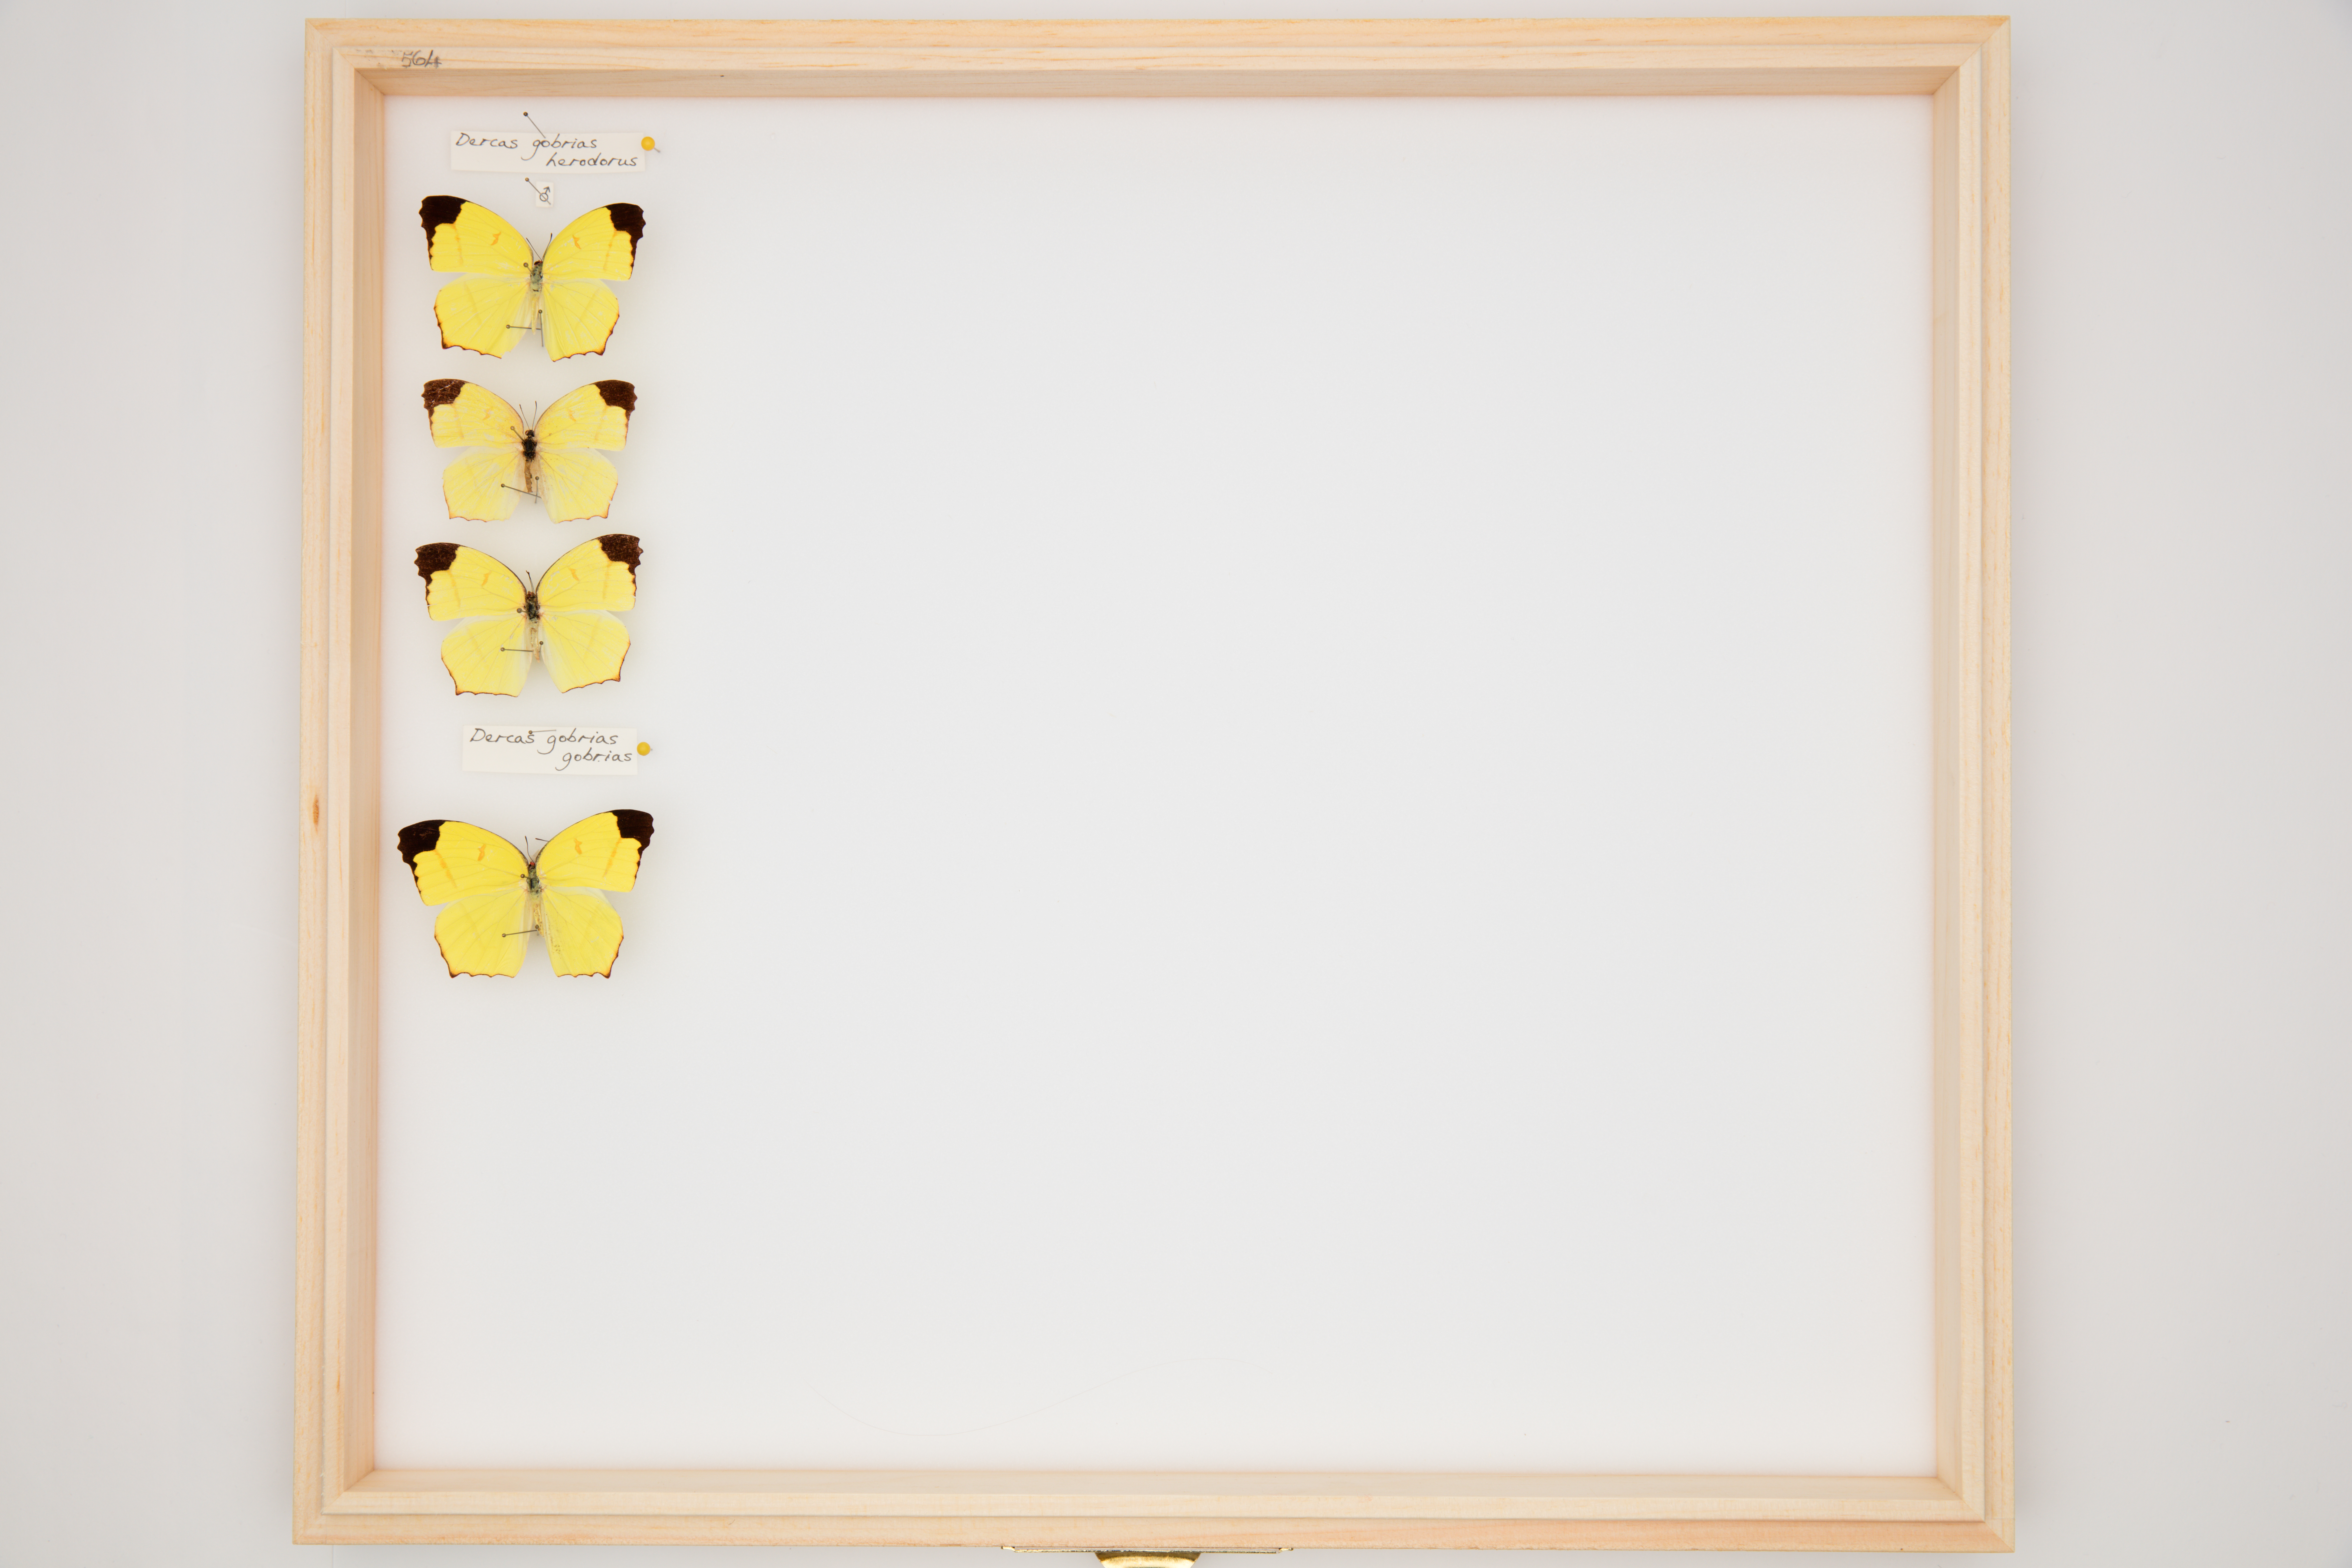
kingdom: Animalia
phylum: Arthropoda
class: Insecta
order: Lepidoptera
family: Pieridae
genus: Dercas
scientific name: Dercas gobrias
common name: Angled sulfur
